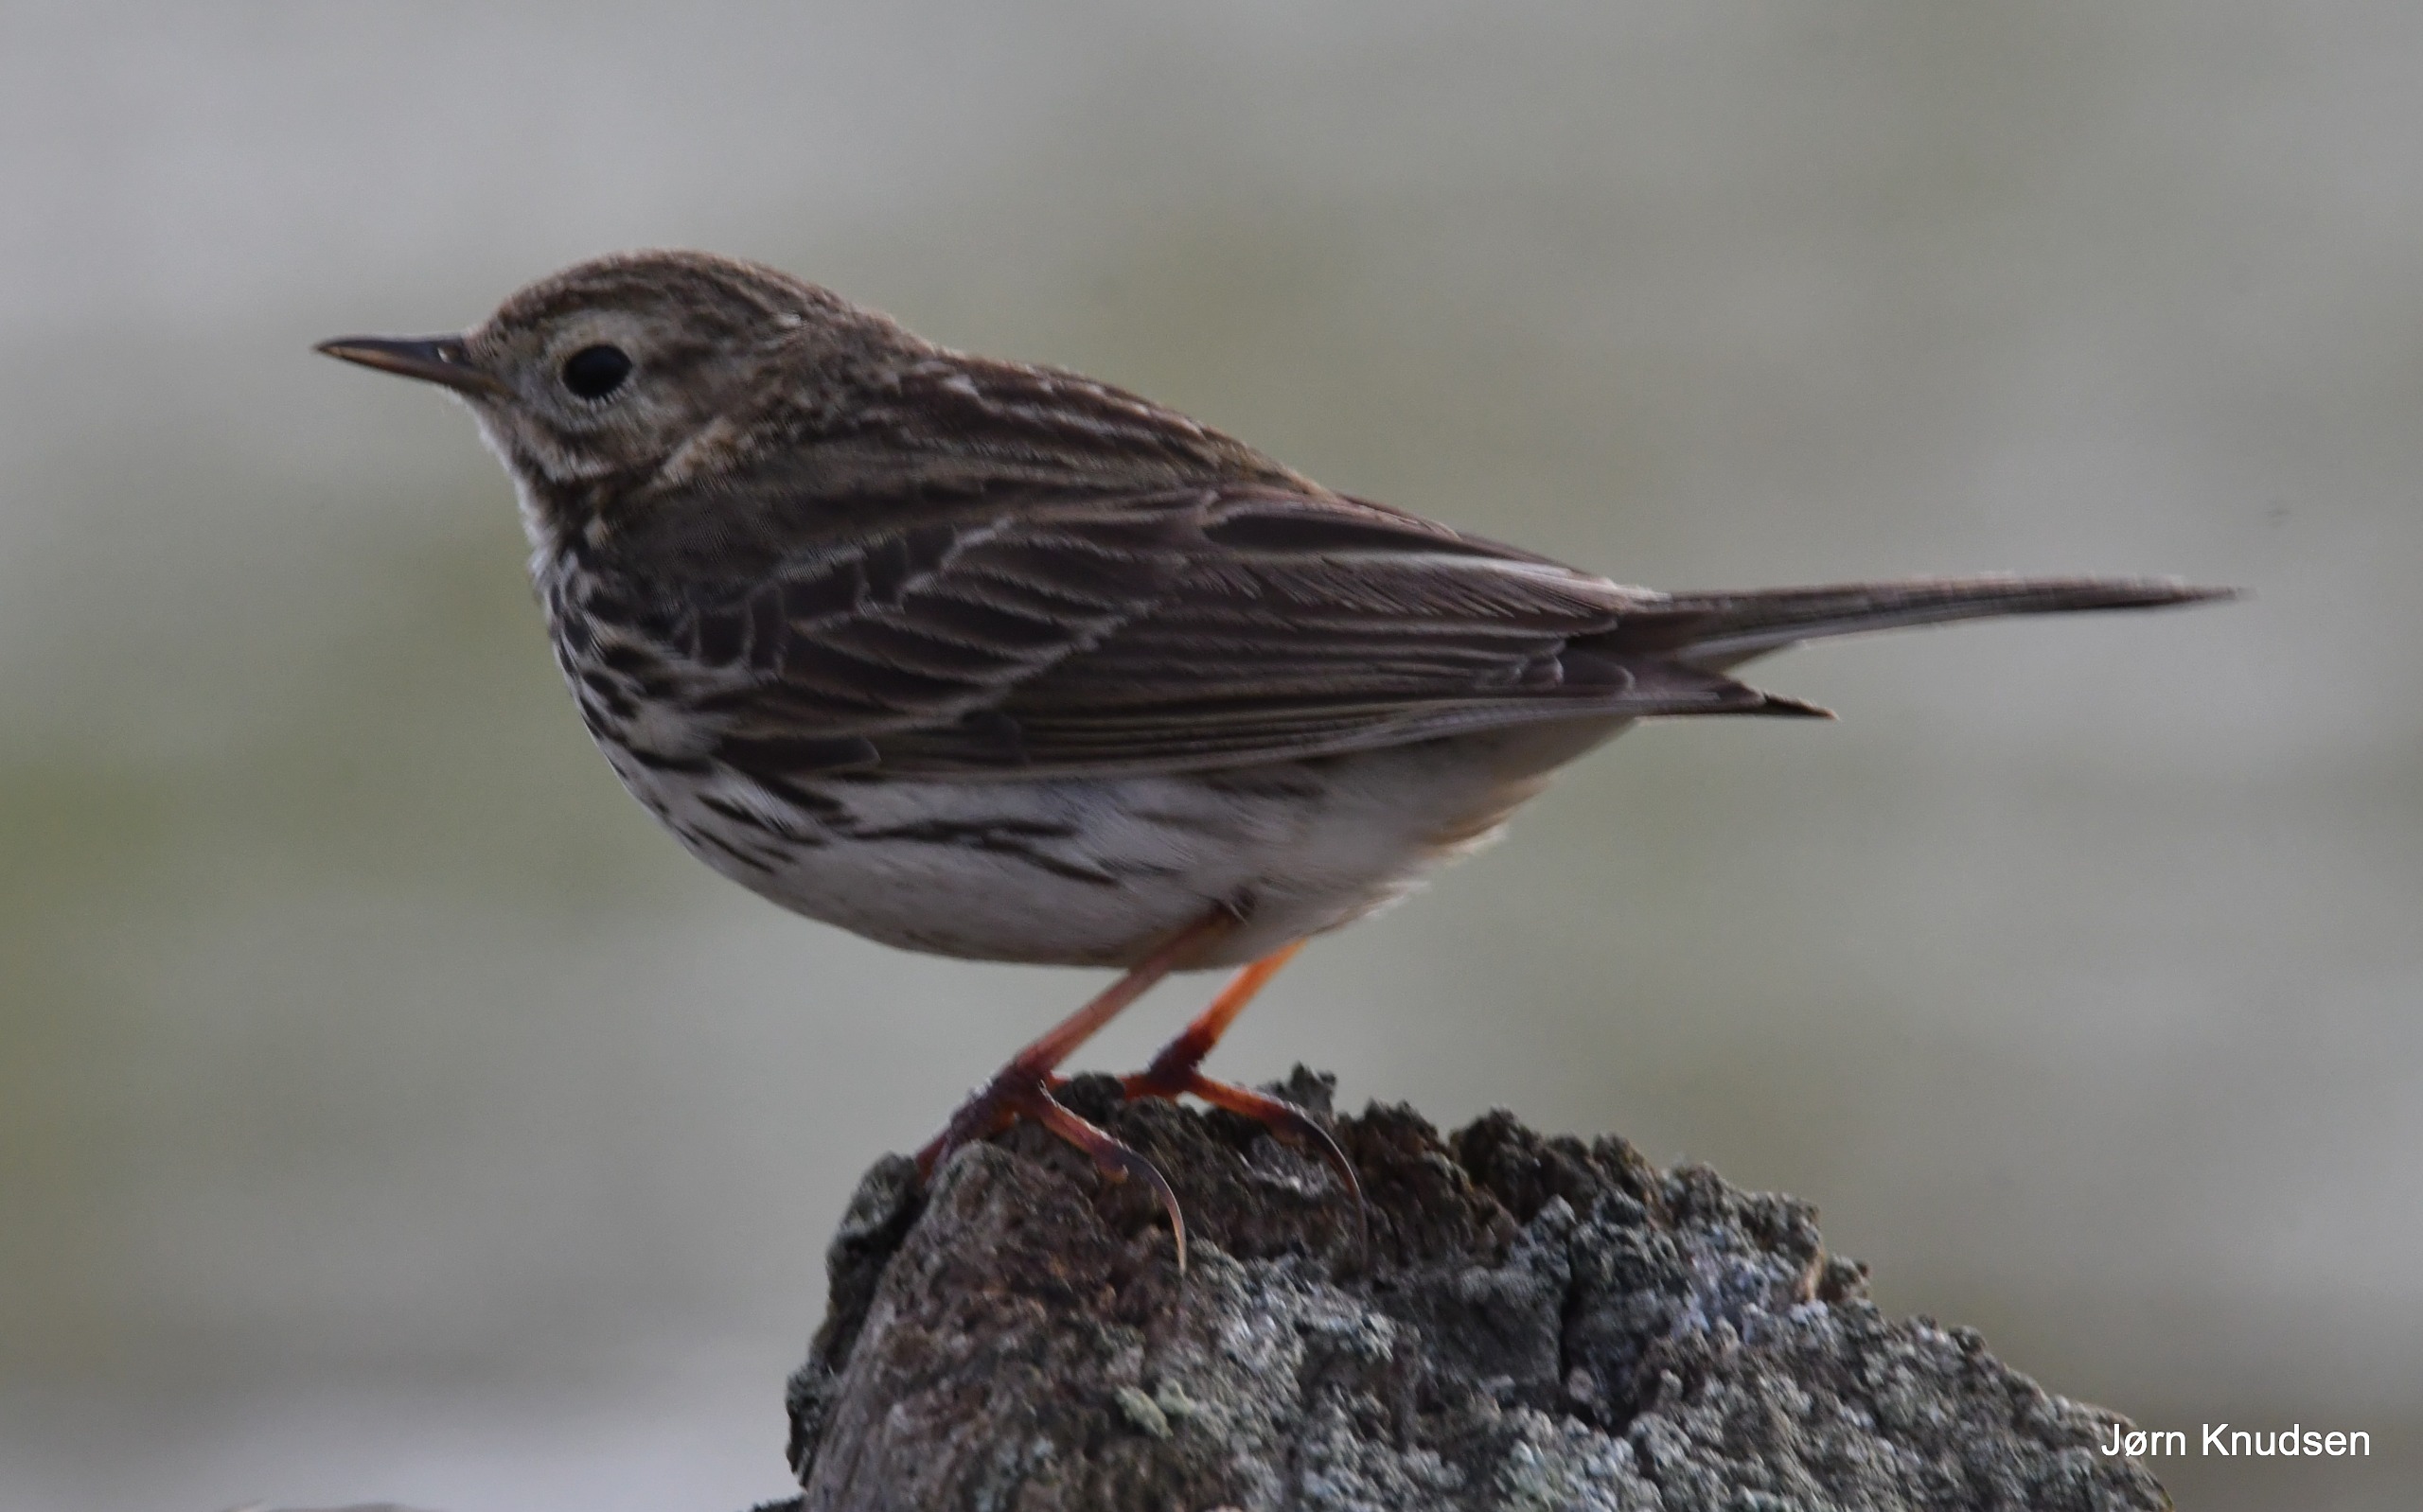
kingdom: Animalia
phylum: Chordata
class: Aves
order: Passeriformes
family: Motacillidae
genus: Anthus
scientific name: Anthus pratensis
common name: Engpiber
